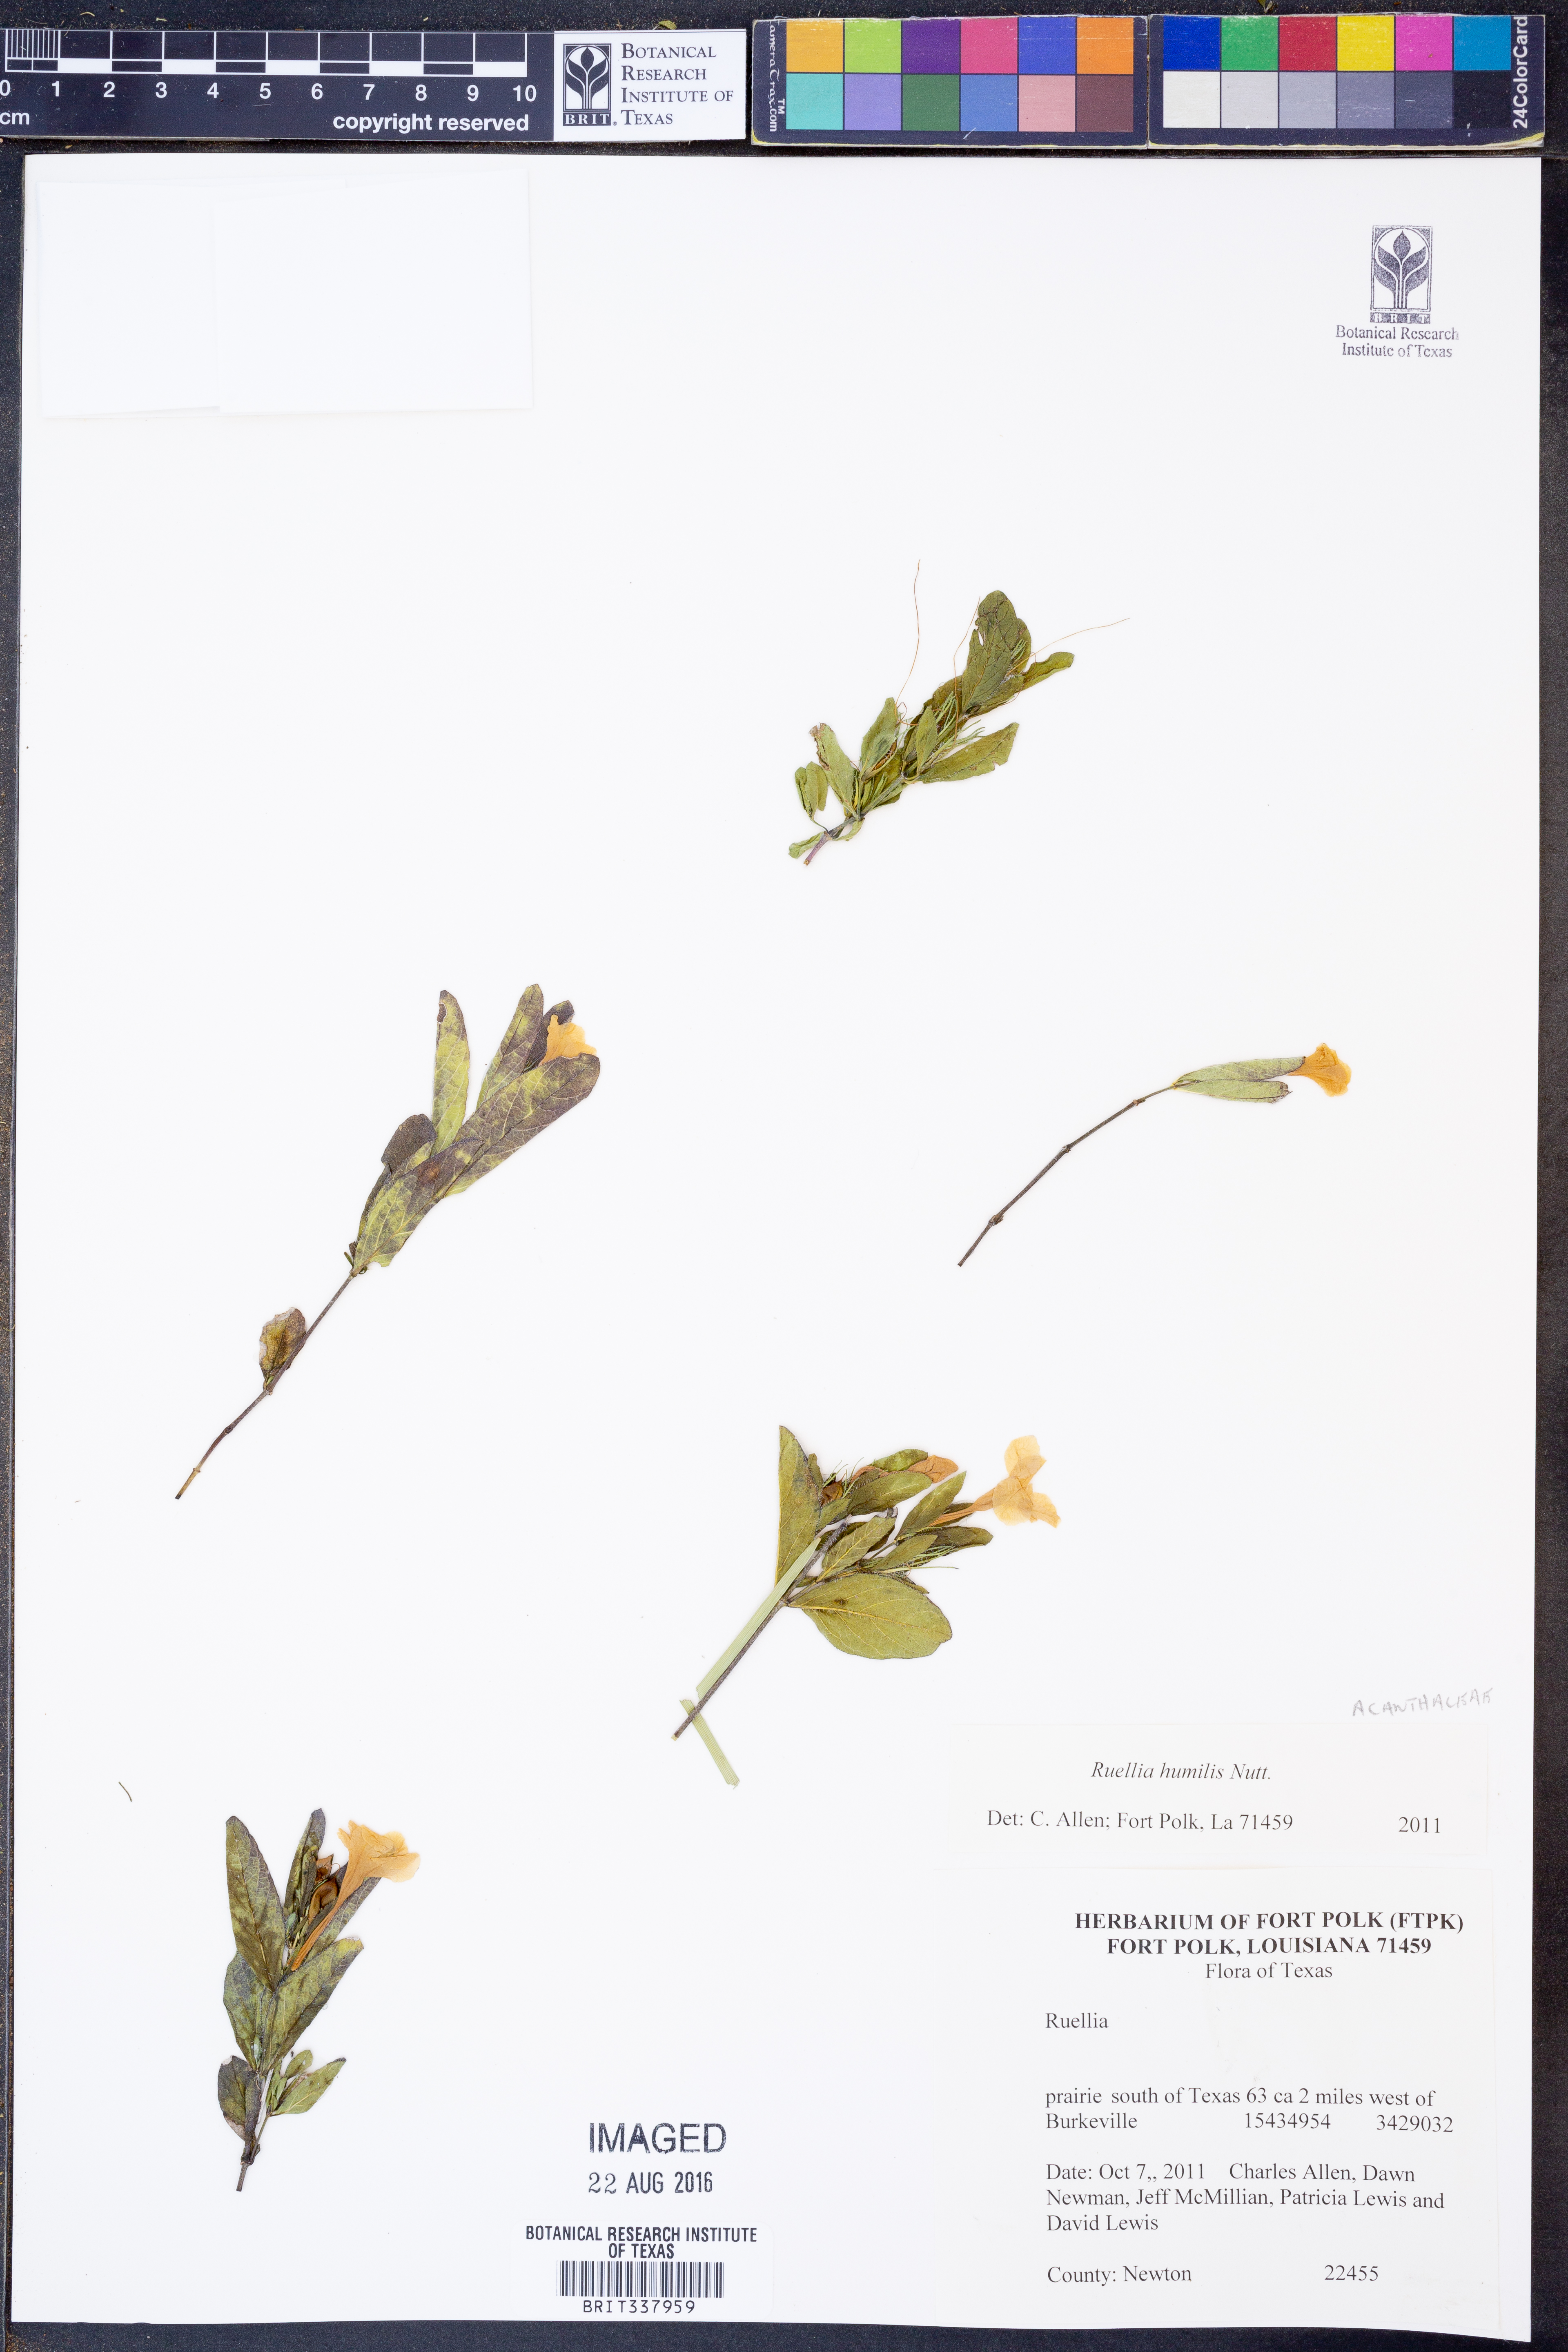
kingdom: Plantae
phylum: Tracheophyta
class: Magnoliopsida
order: Lamiales
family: Acanthaceae
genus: Ruellia
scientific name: Ruellia humilis
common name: Fringe-leaf ruellia
